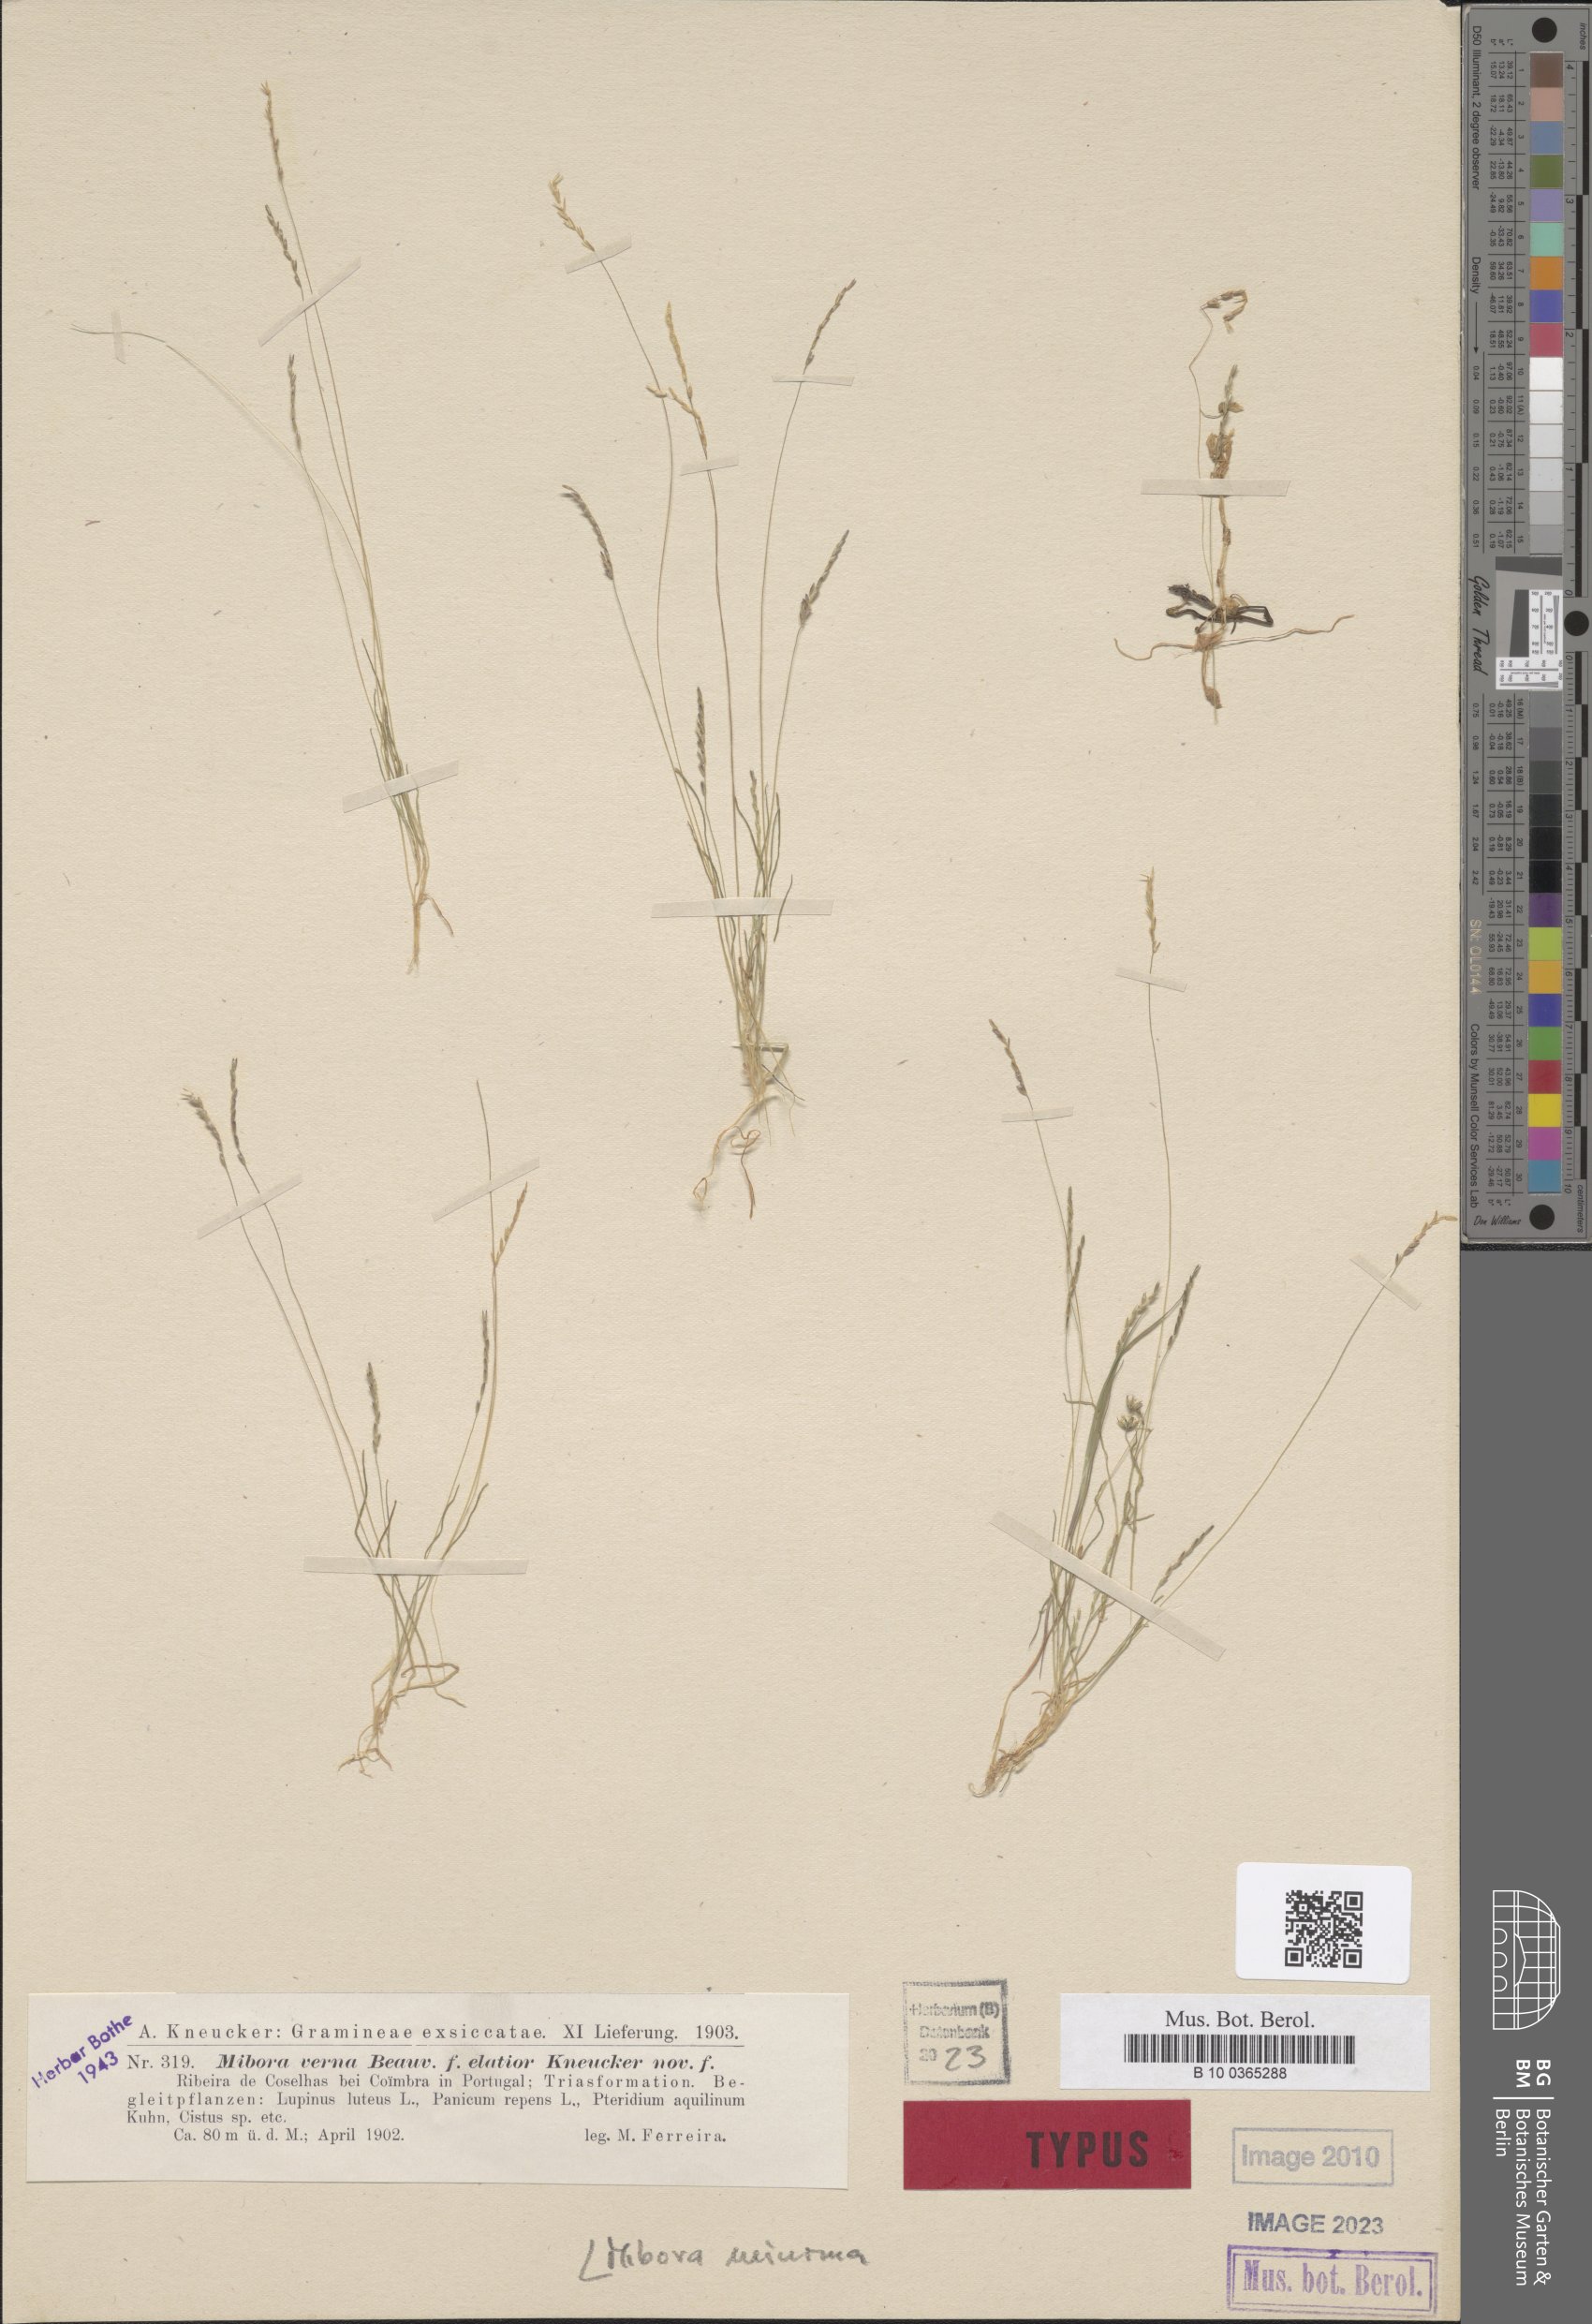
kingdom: Plantae
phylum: Tracheophyta
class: Liliopsida
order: Poales
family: Poaceae
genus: Mibora
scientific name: Mibora minima
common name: Early sand-grass
